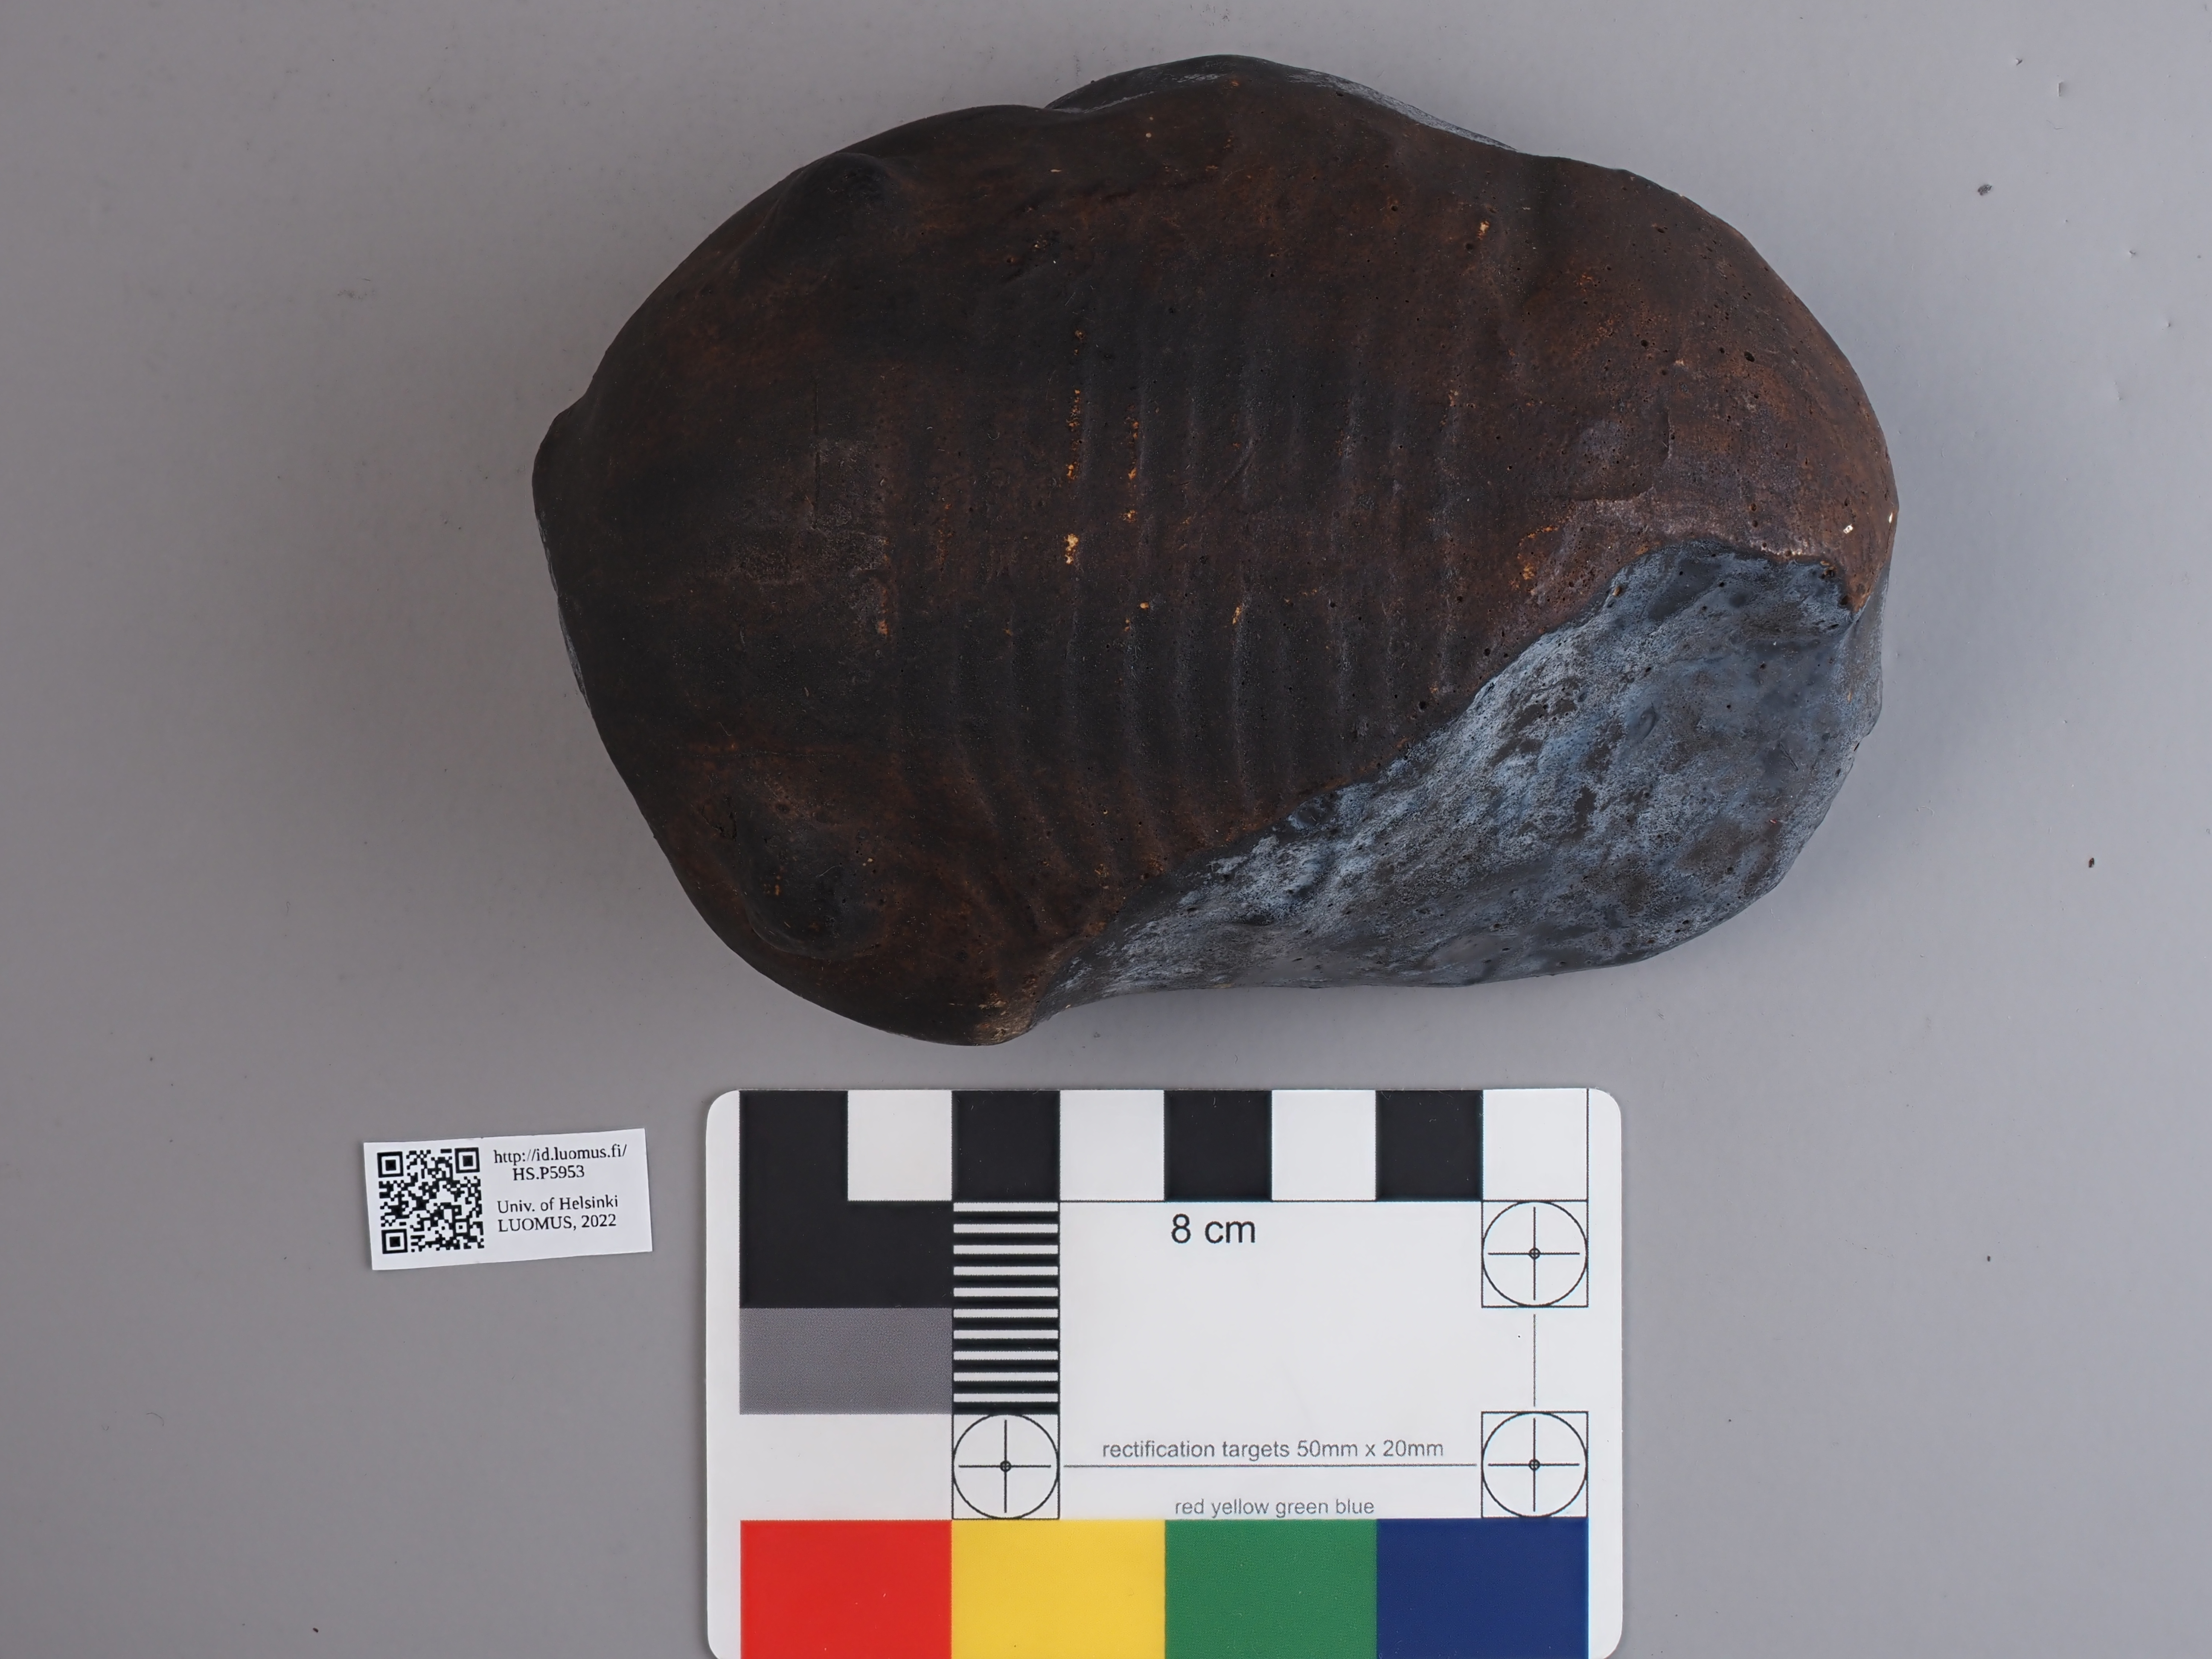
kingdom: Animalia
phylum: Arthropoda
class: Trilobita
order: Corynexochida
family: Illaenidae
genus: Bumastus
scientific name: Bumastus barriensis
